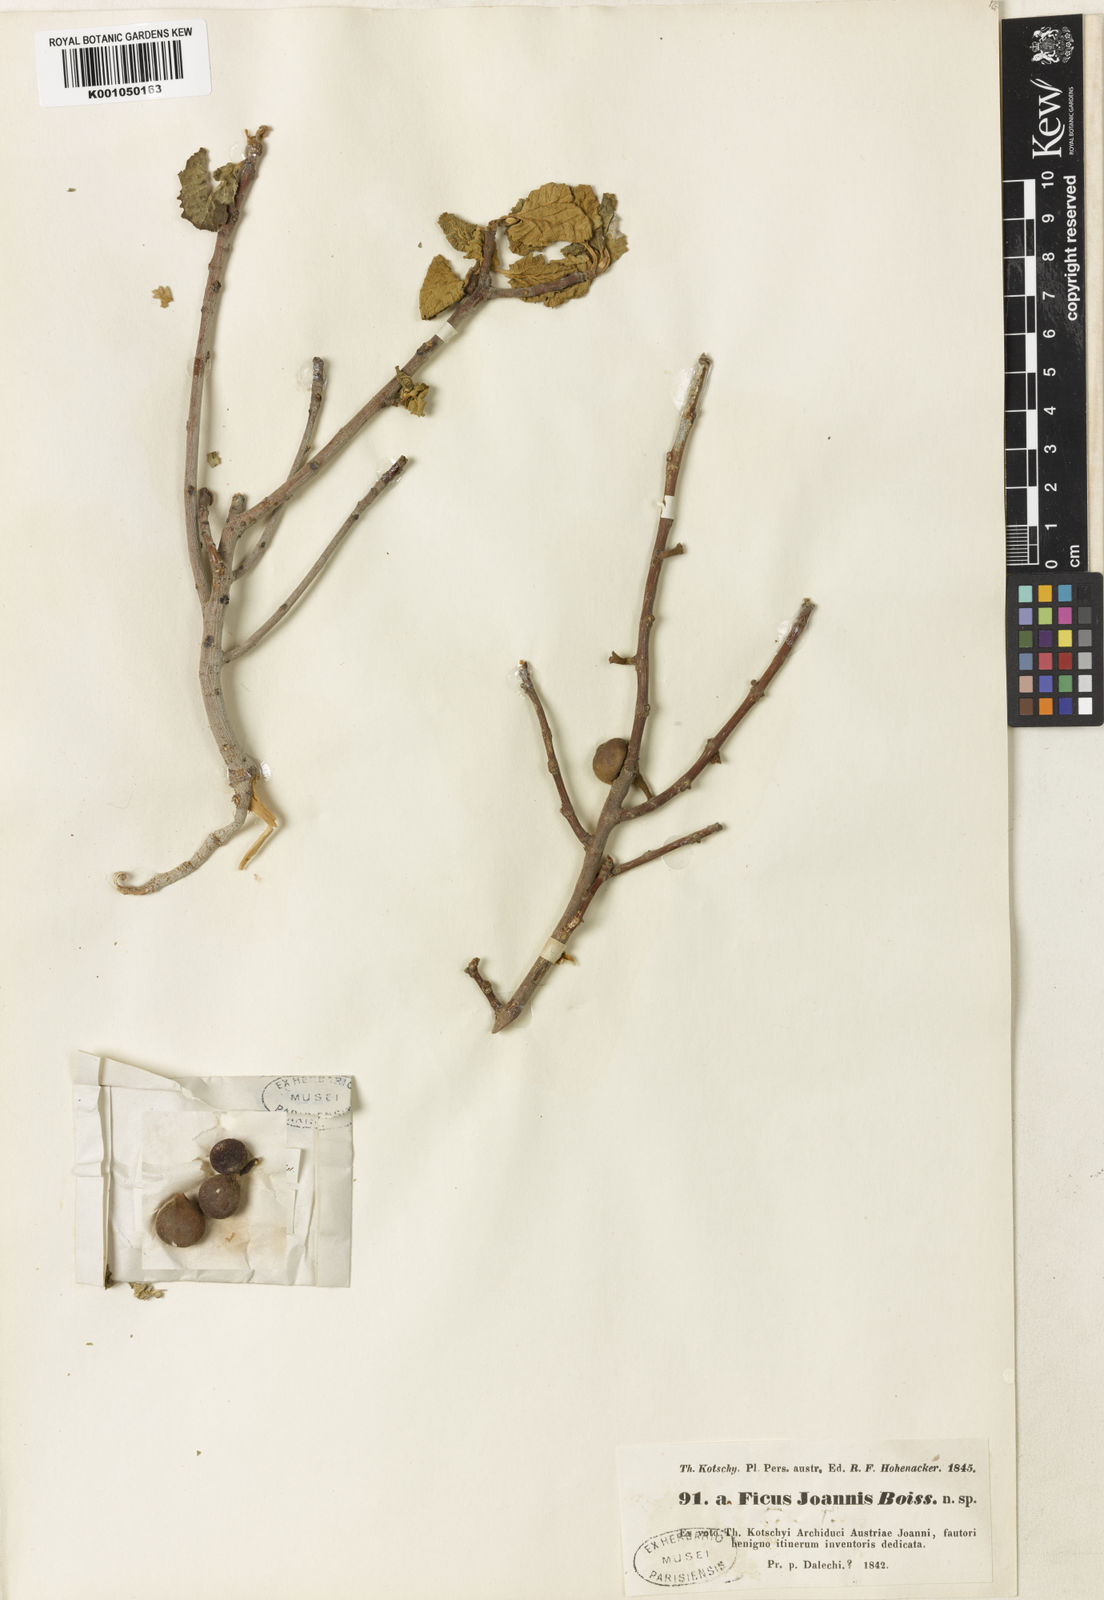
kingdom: Plantae
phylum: Tracheophyta
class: Magnoliopsida
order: Rosales
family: Moraceae
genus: Ficus
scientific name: Ficus johannis
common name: Mountain fig
